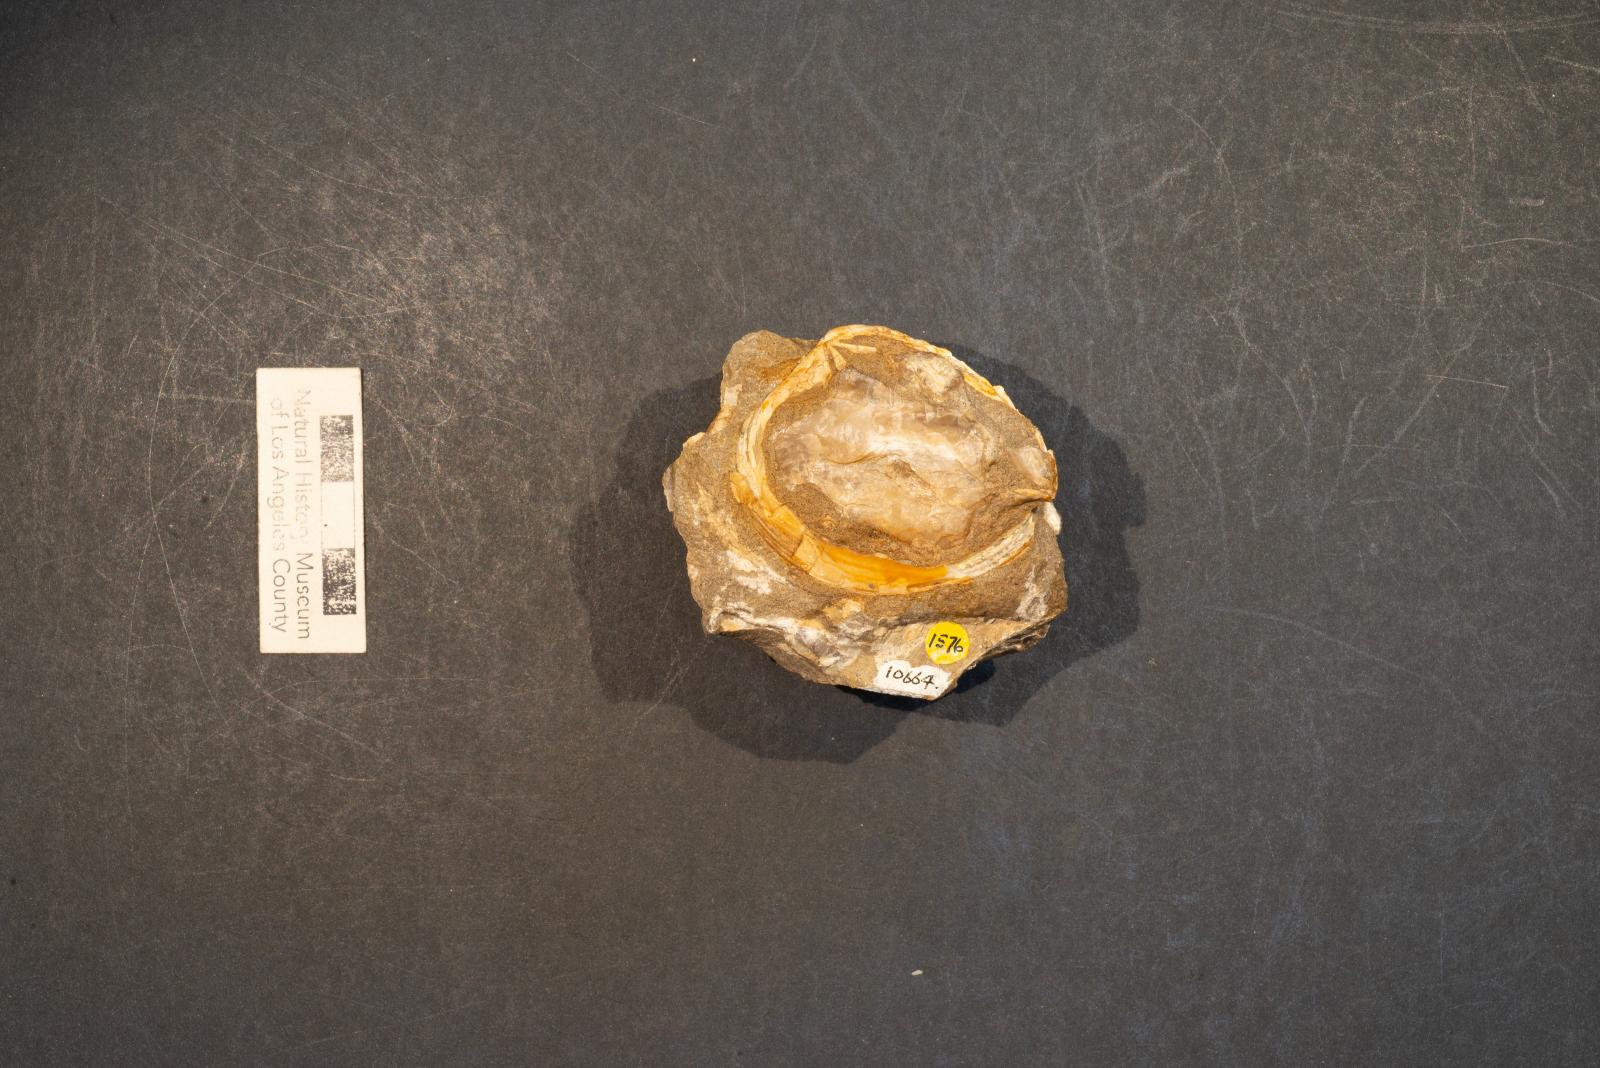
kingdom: Animalia
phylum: Mollusca
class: Bivalvia
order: Venerida
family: Veneridae
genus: Loxo
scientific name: Loxo quintense
